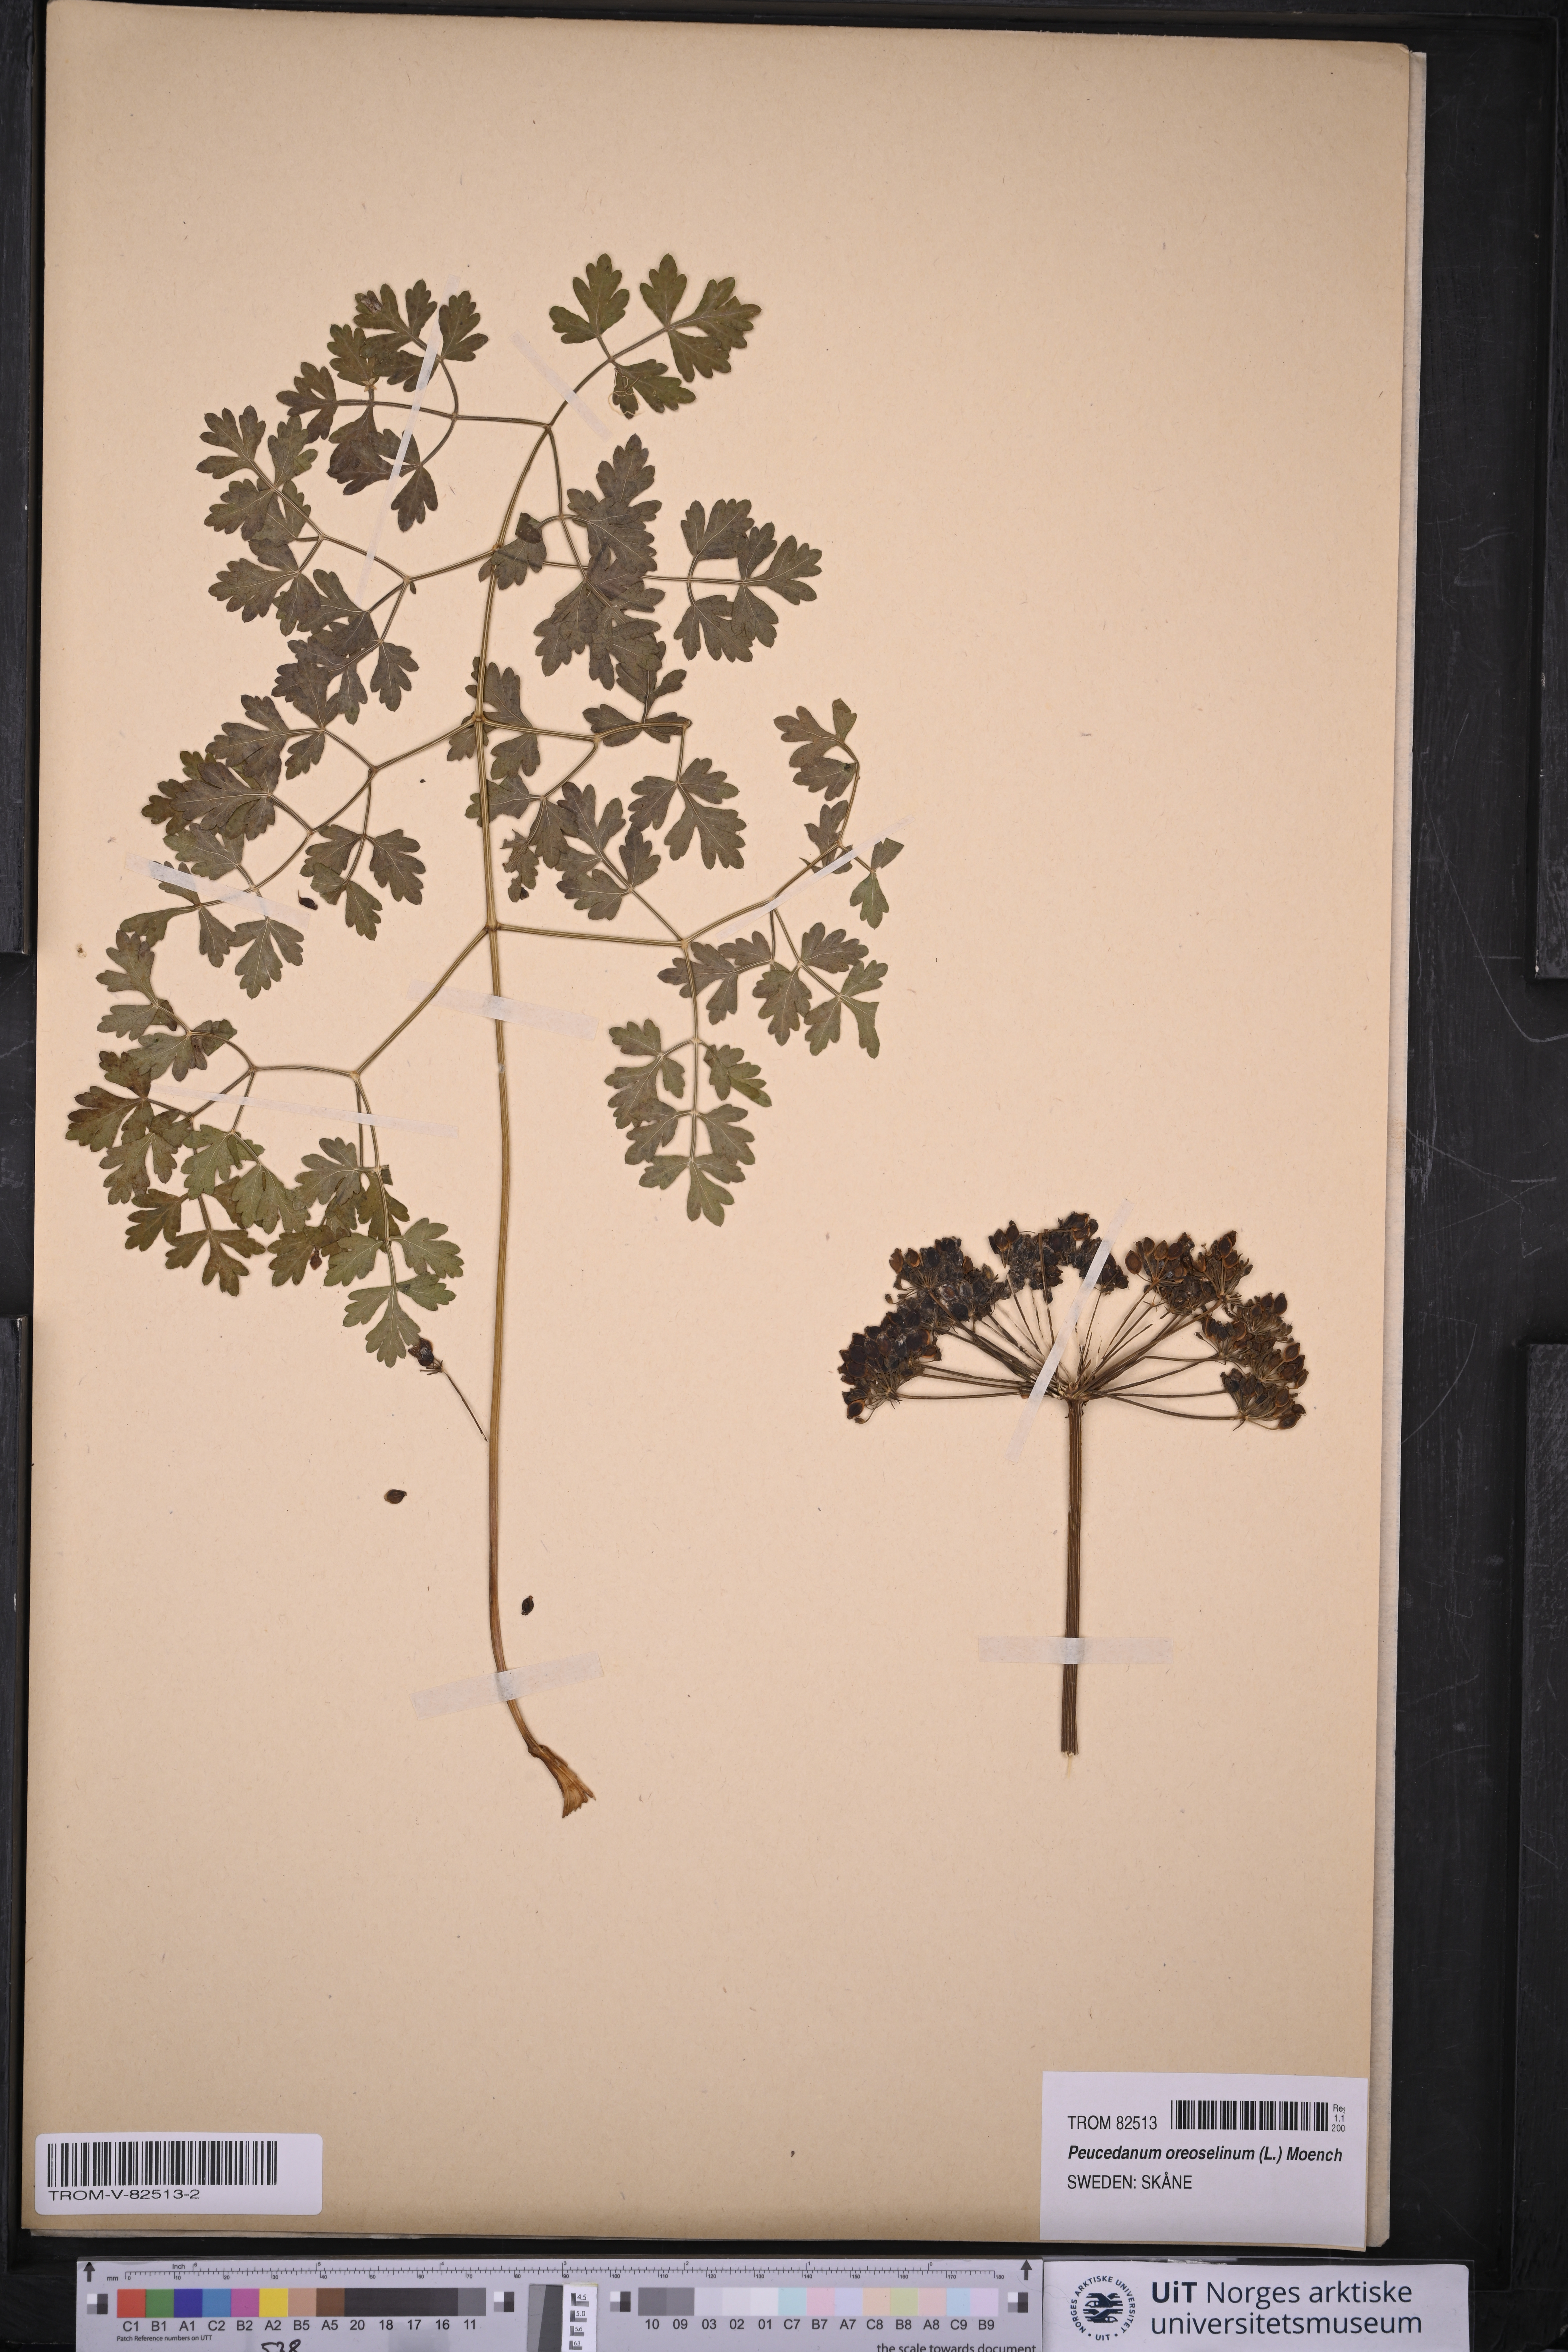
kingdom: Plantae
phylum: Tracheophyta
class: Magnoliopsida
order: Apiales
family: Apiaceae
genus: Oreoselinum
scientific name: Oreoselinum nigrum
